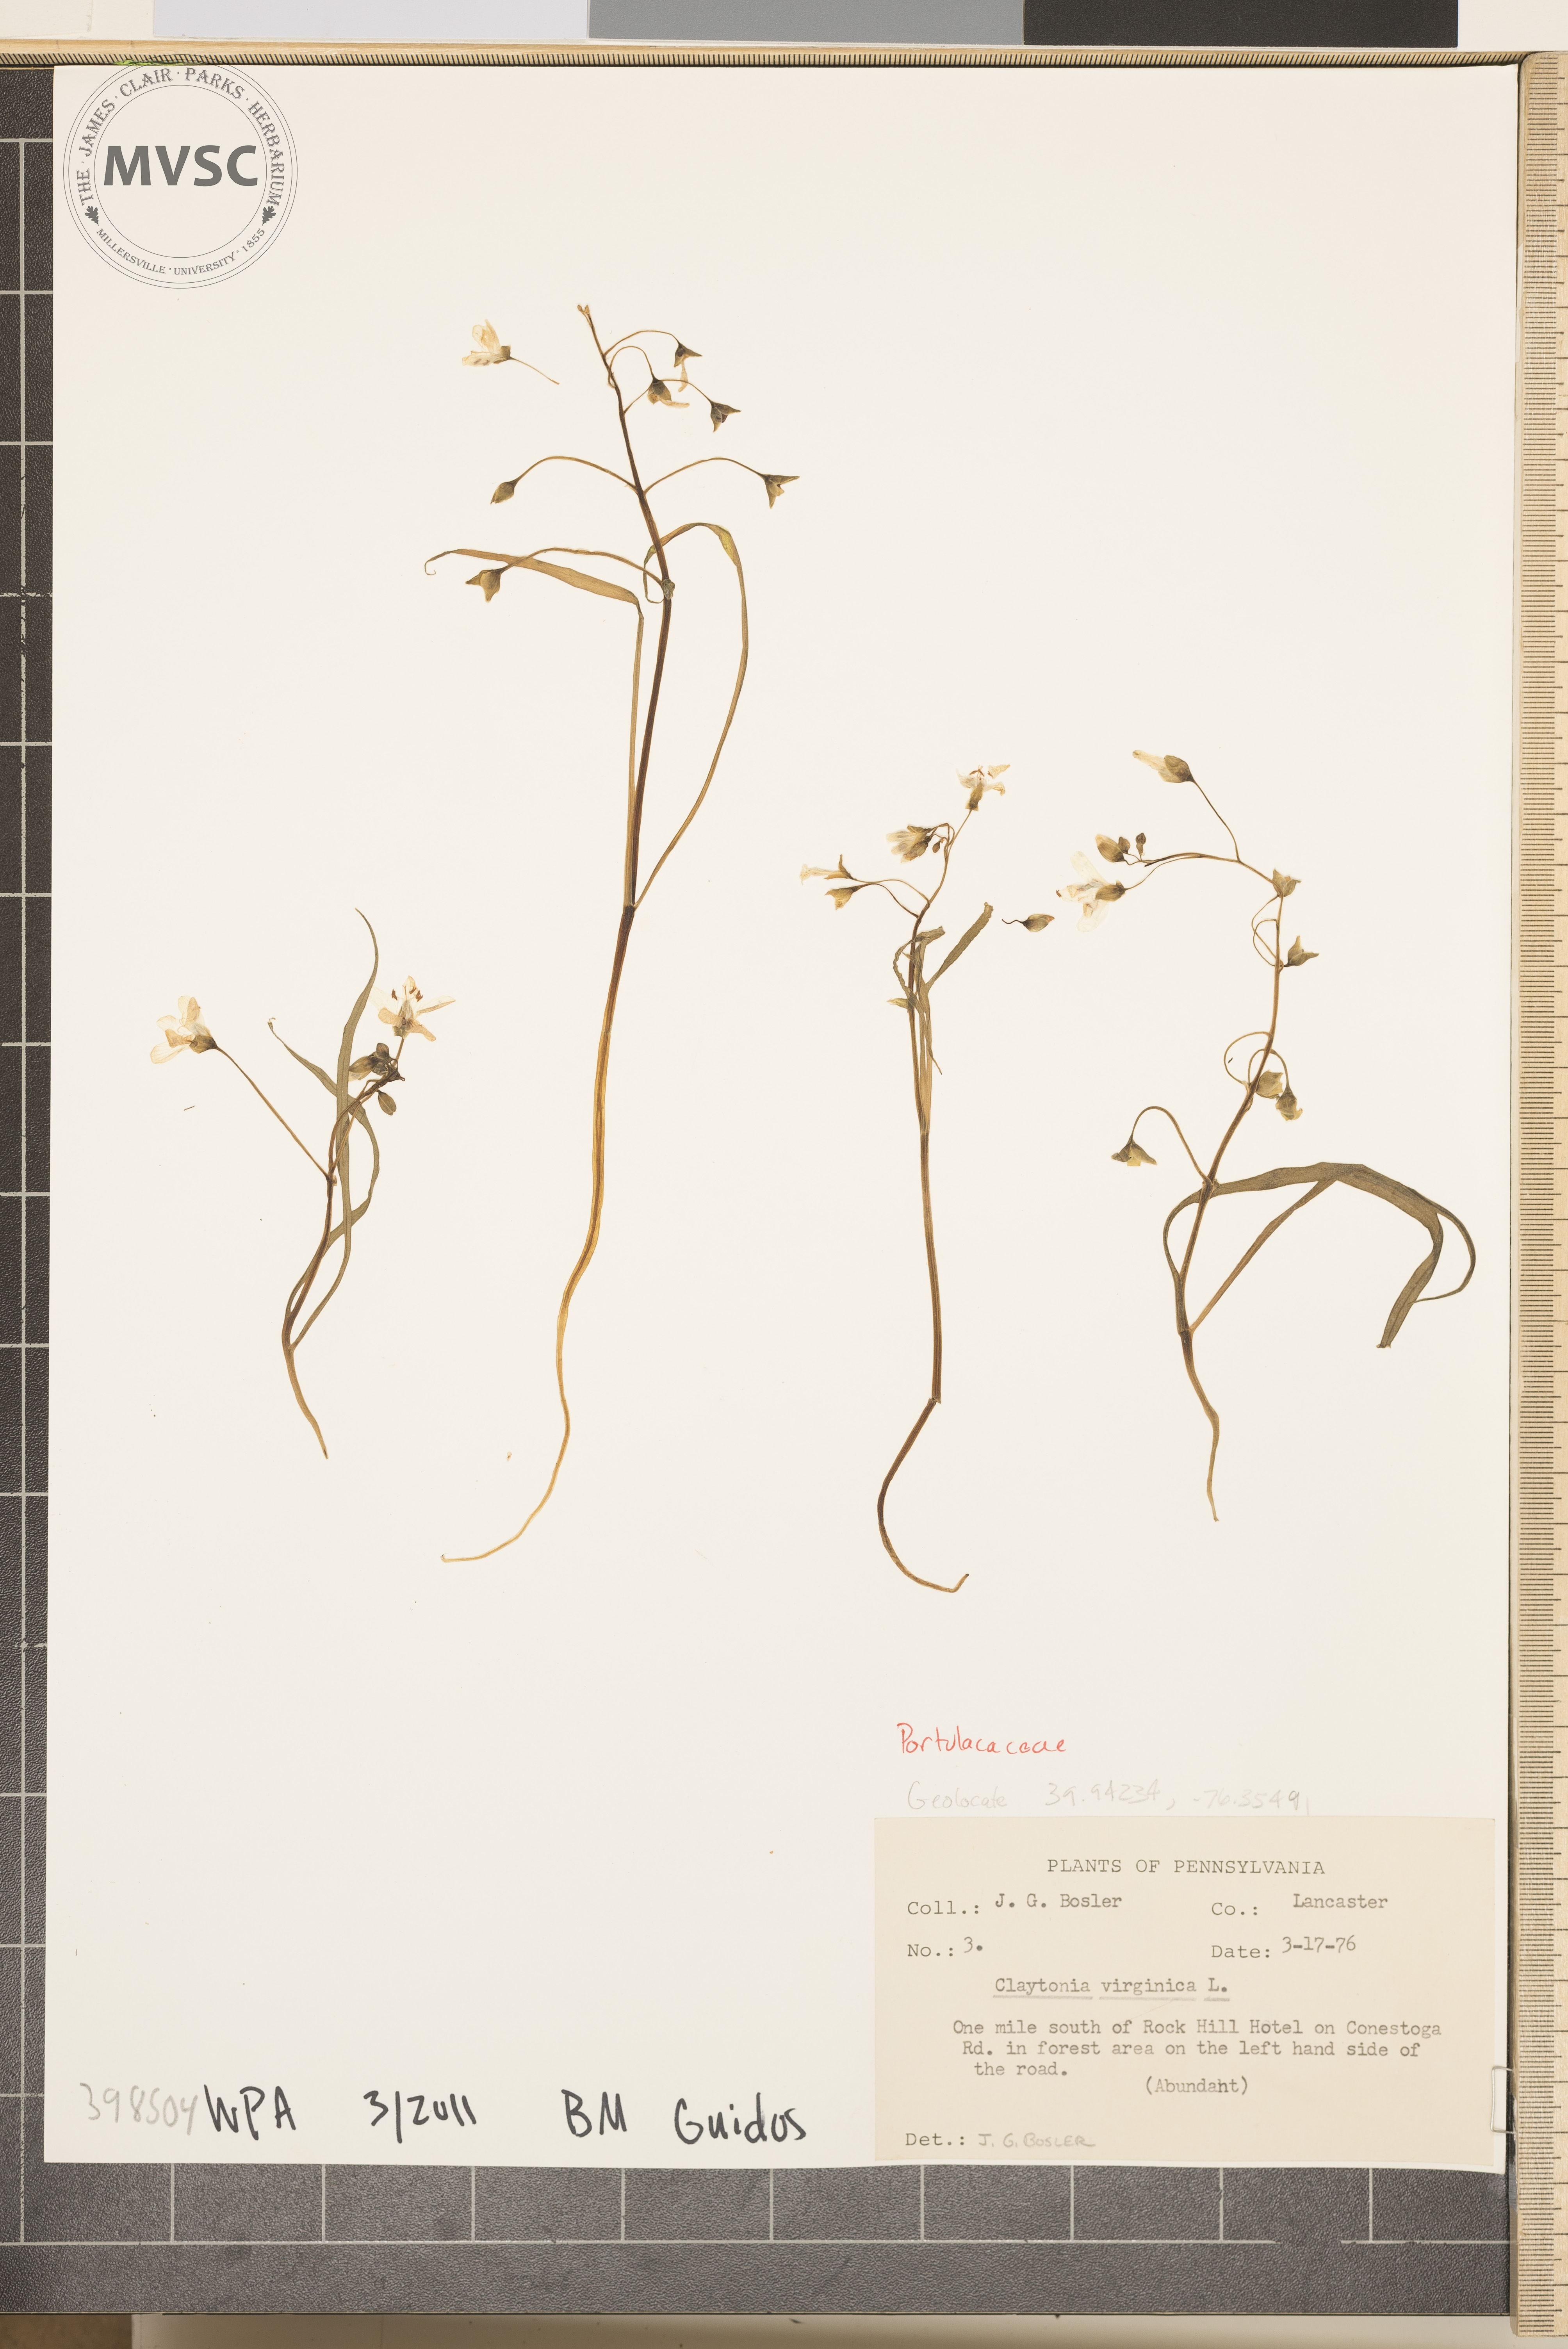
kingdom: Plantae
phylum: Tracheophyta
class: Magnoliopsida
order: Caryophyllales
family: Montiaceae
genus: Claytonia
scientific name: Claytonia virginica
